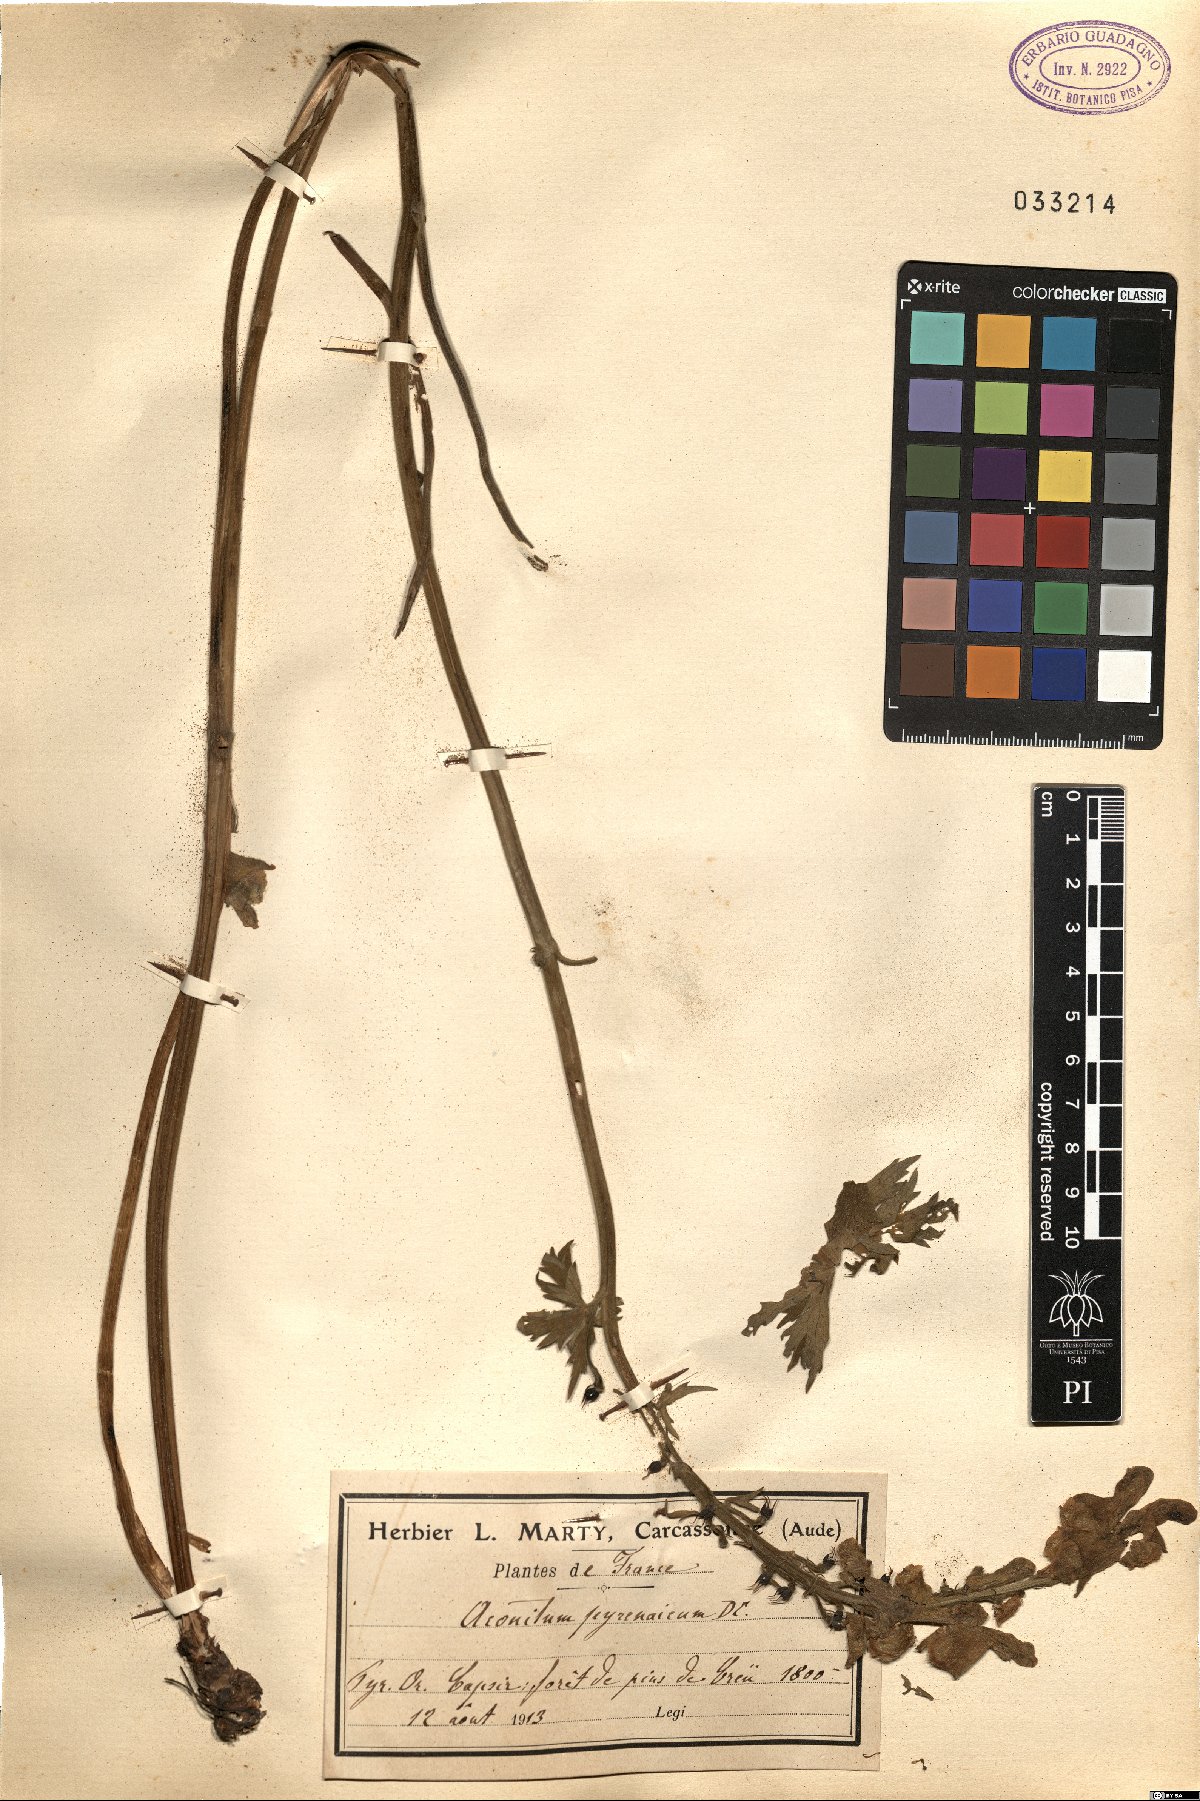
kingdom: Plantae
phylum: Tracheophyta
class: Magnoliopsida
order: Ranunculales
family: Ranunculaceae
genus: Aconitum
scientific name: Aconitum lycoctonum
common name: Wolf's-bane
